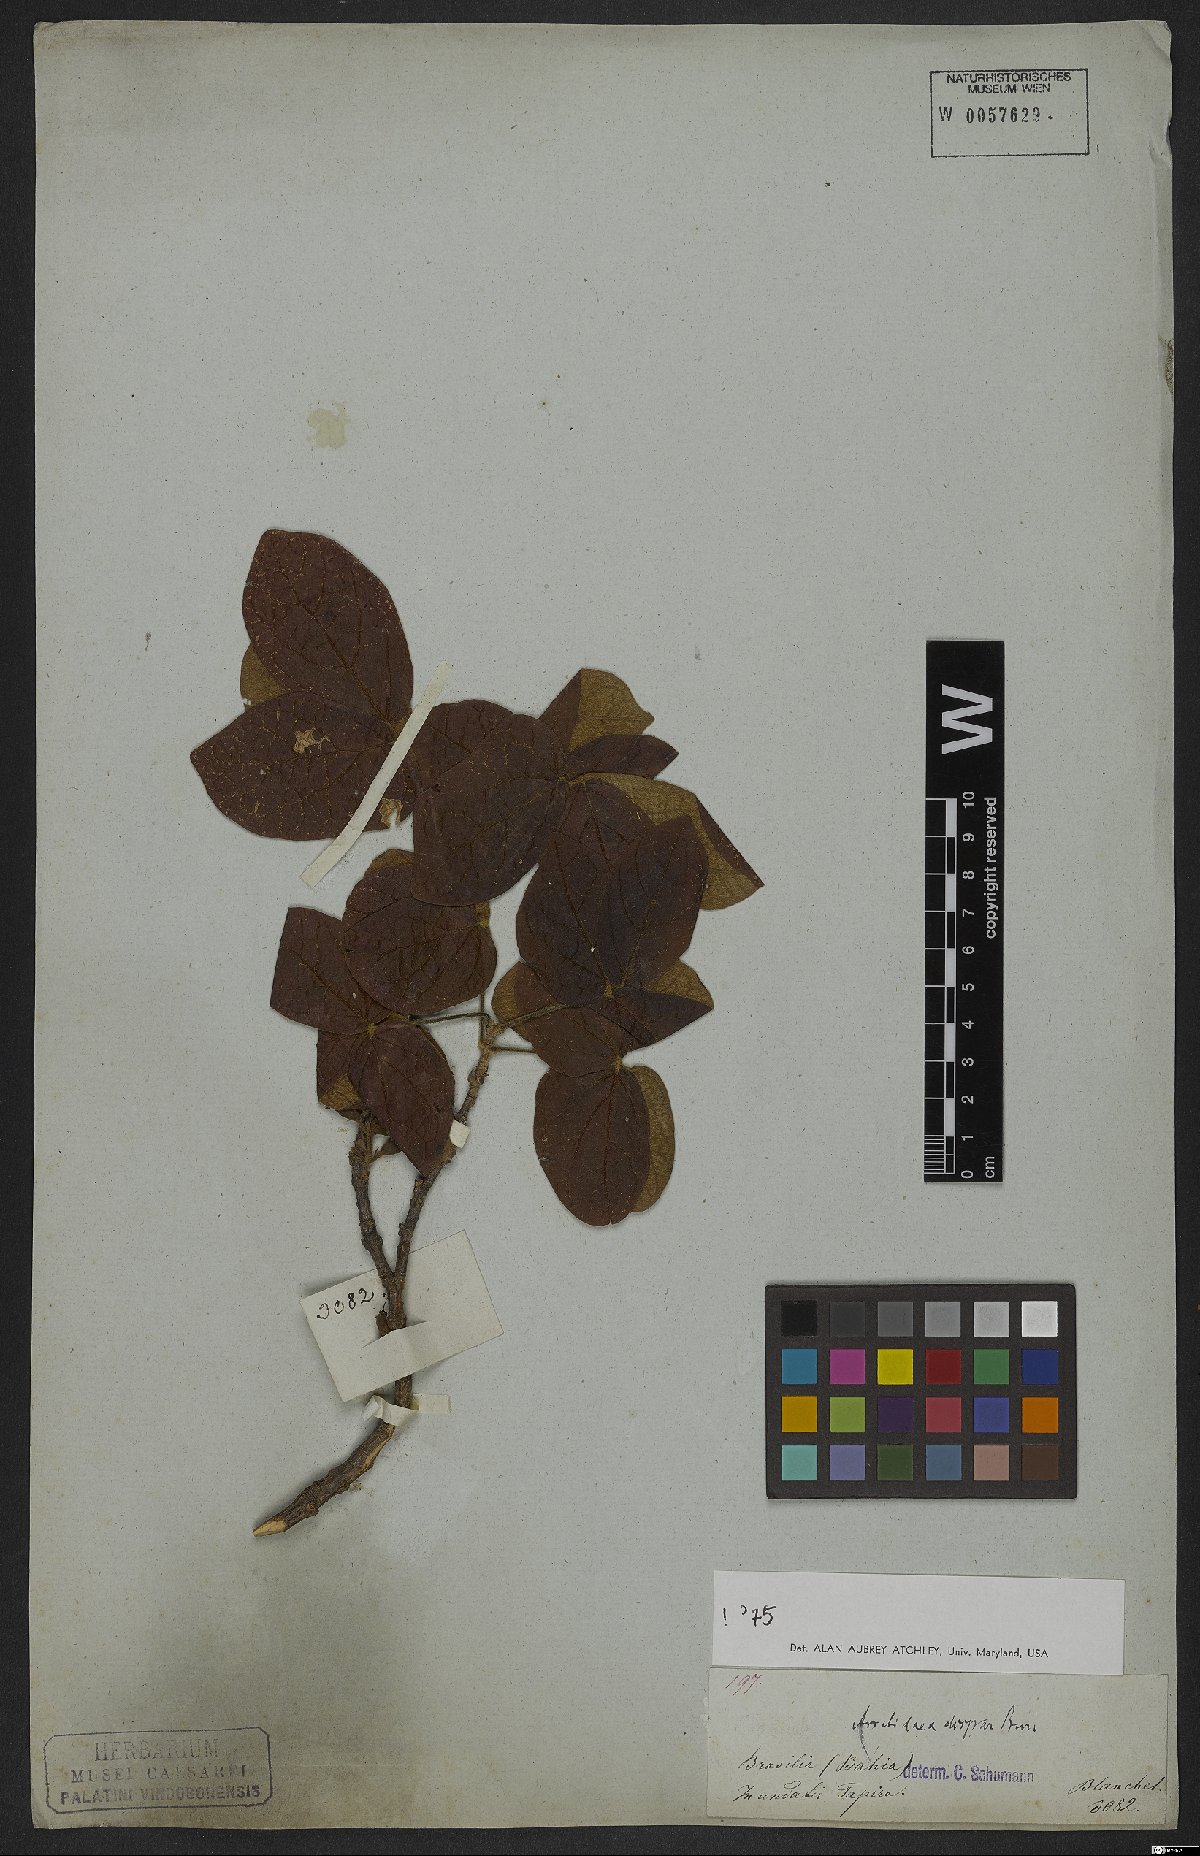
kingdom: Plantae
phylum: Tracheophyta
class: Magnoliopsida
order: Lamiales
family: Bignoniaceae
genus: Fridericia
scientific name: Fridericia cinnamomea
